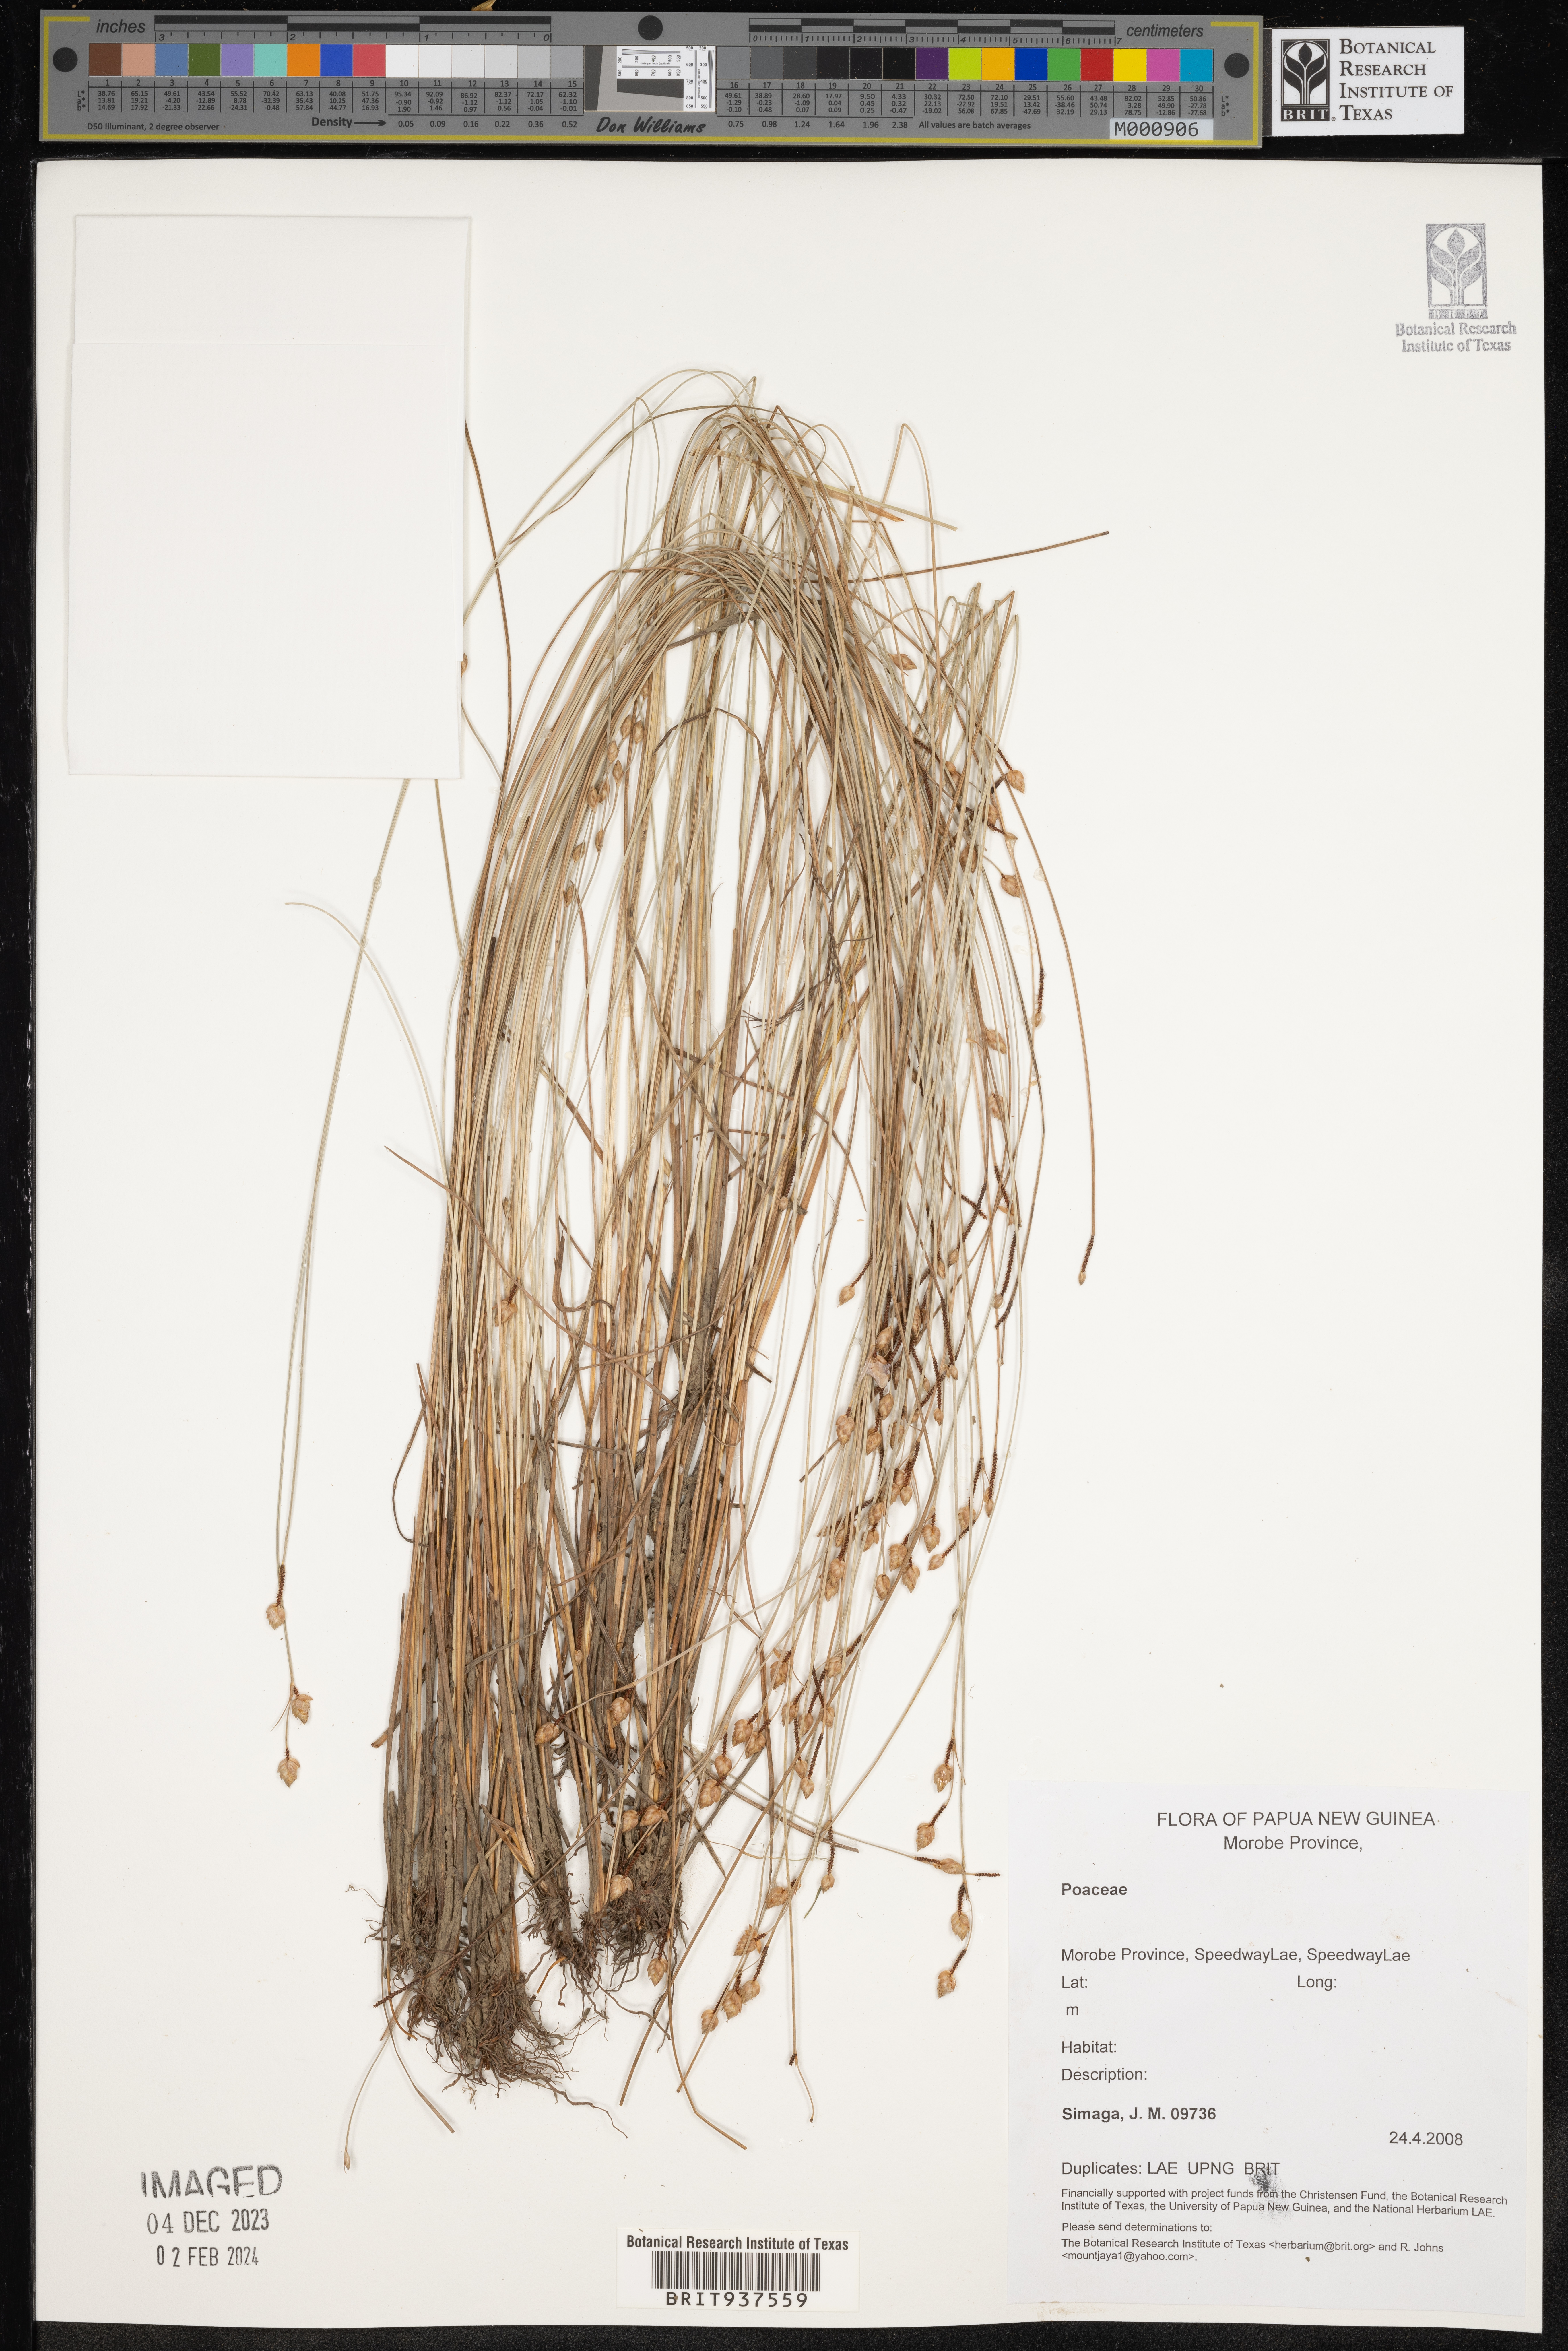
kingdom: Plantae
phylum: Tracheophyta
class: Liliopsida
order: Poales
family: Poaceae
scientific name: Poaceae
